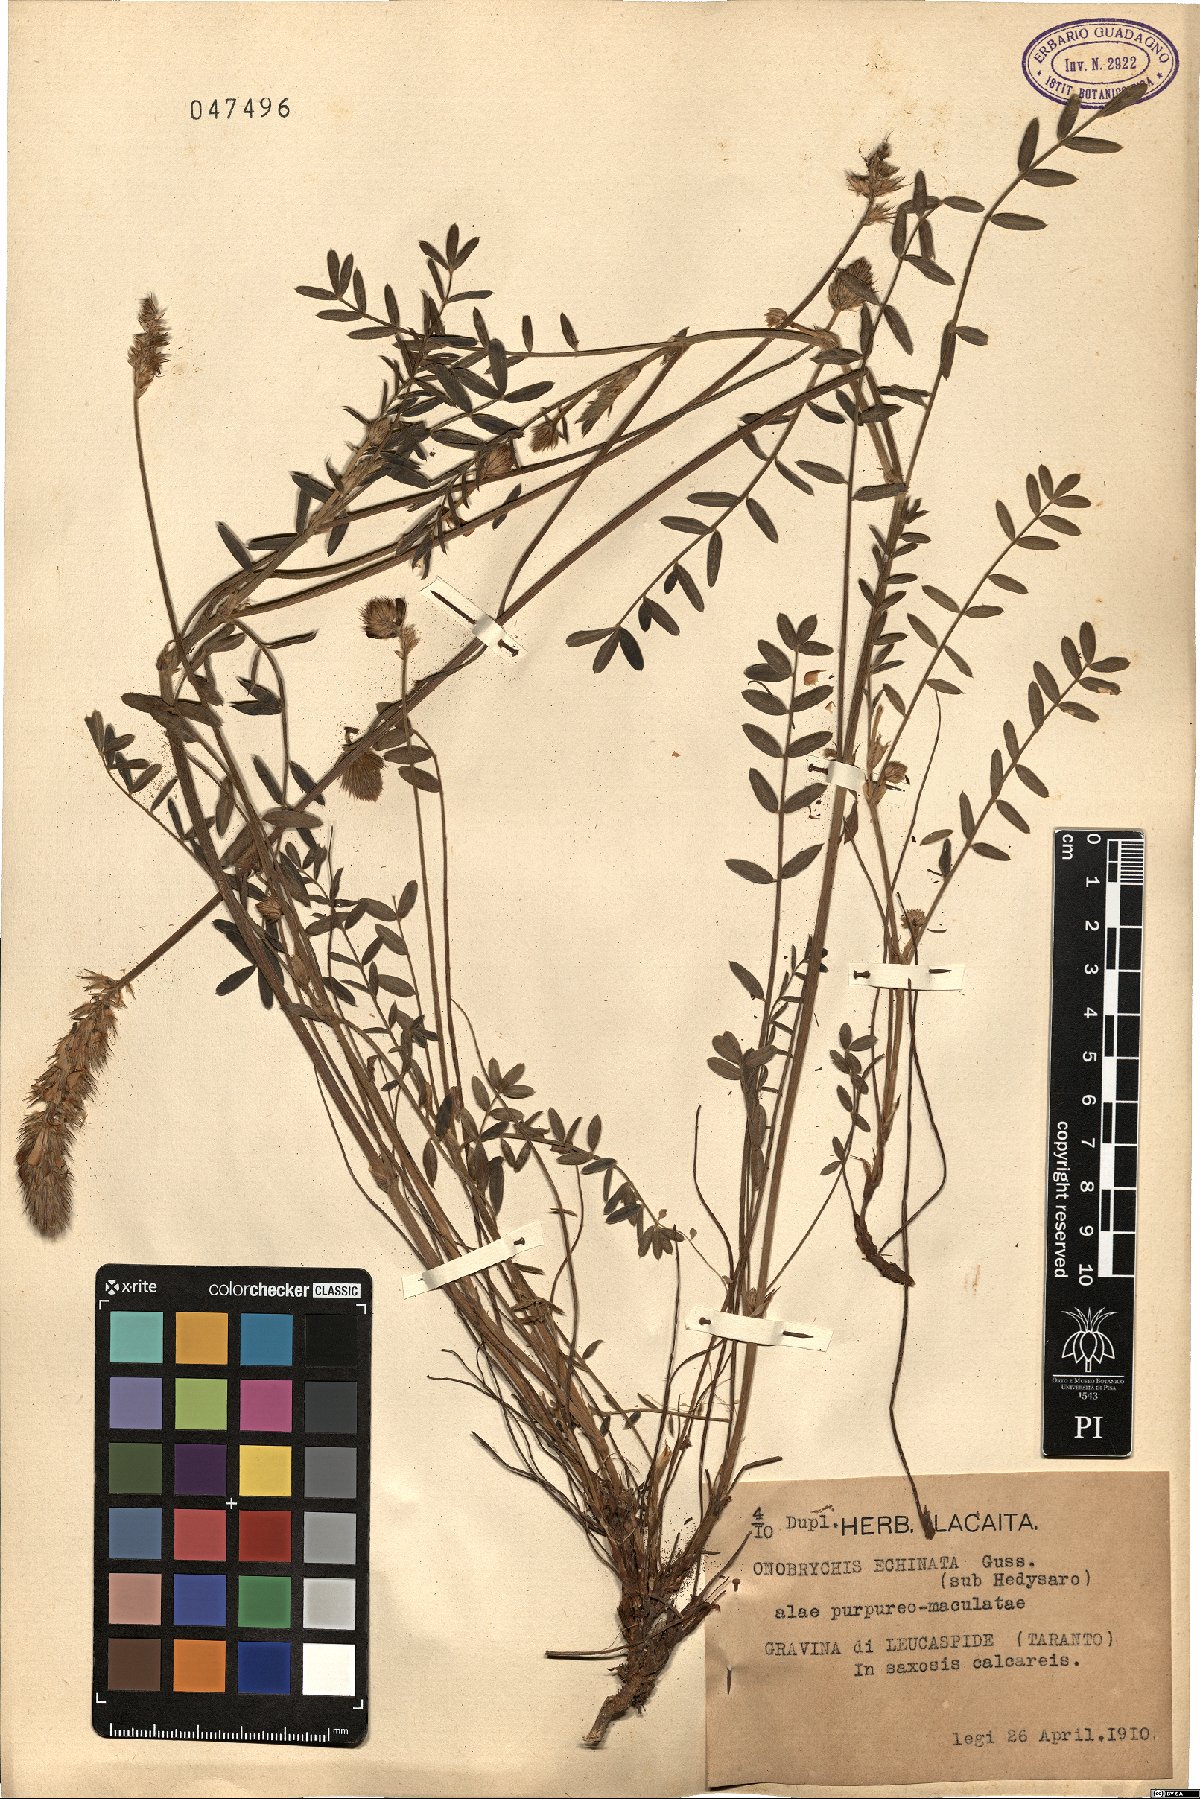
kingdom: Plantae
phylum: Tracheophyta
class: Magnoliopsida
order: Fabales
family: Fabaceae
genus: Onobrychis
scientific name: Onobrychis alba
